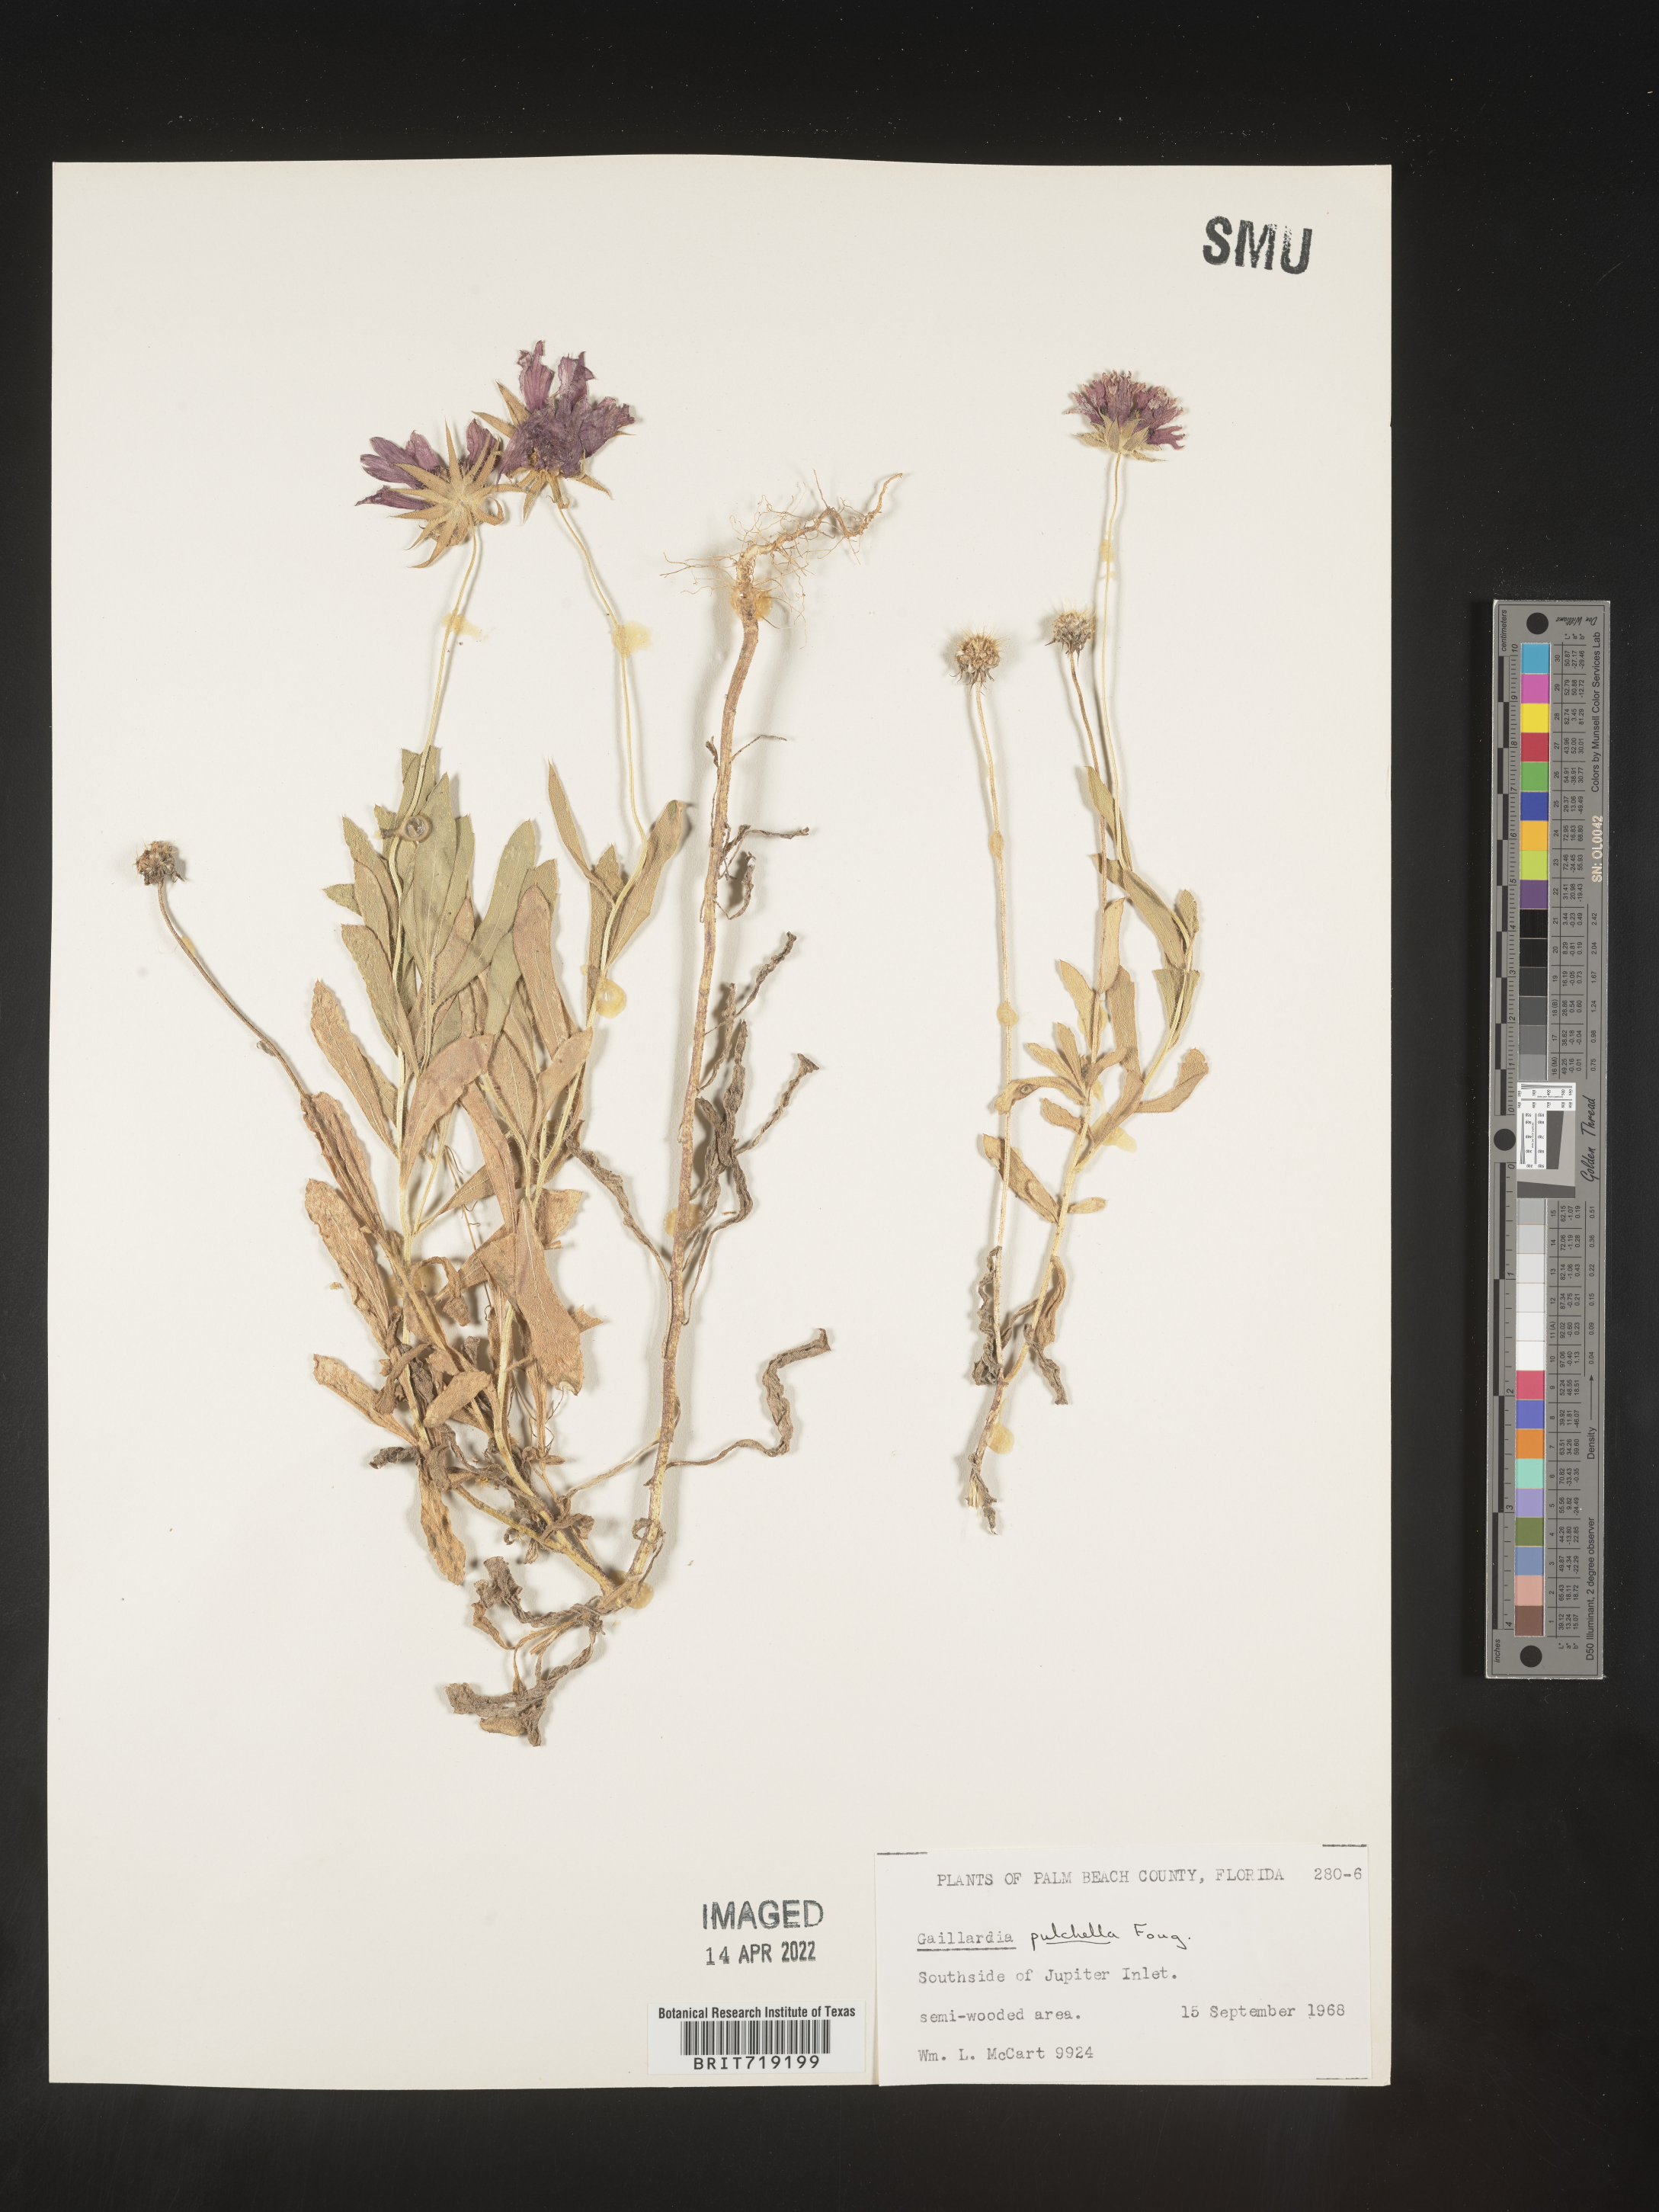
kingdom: Plantae
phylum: Tracheophyta
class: Magnoliopsida
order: Asterales
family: Asteraceae
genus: Gaillardia
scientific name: Gaillardia pulchella
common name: Firewheel
